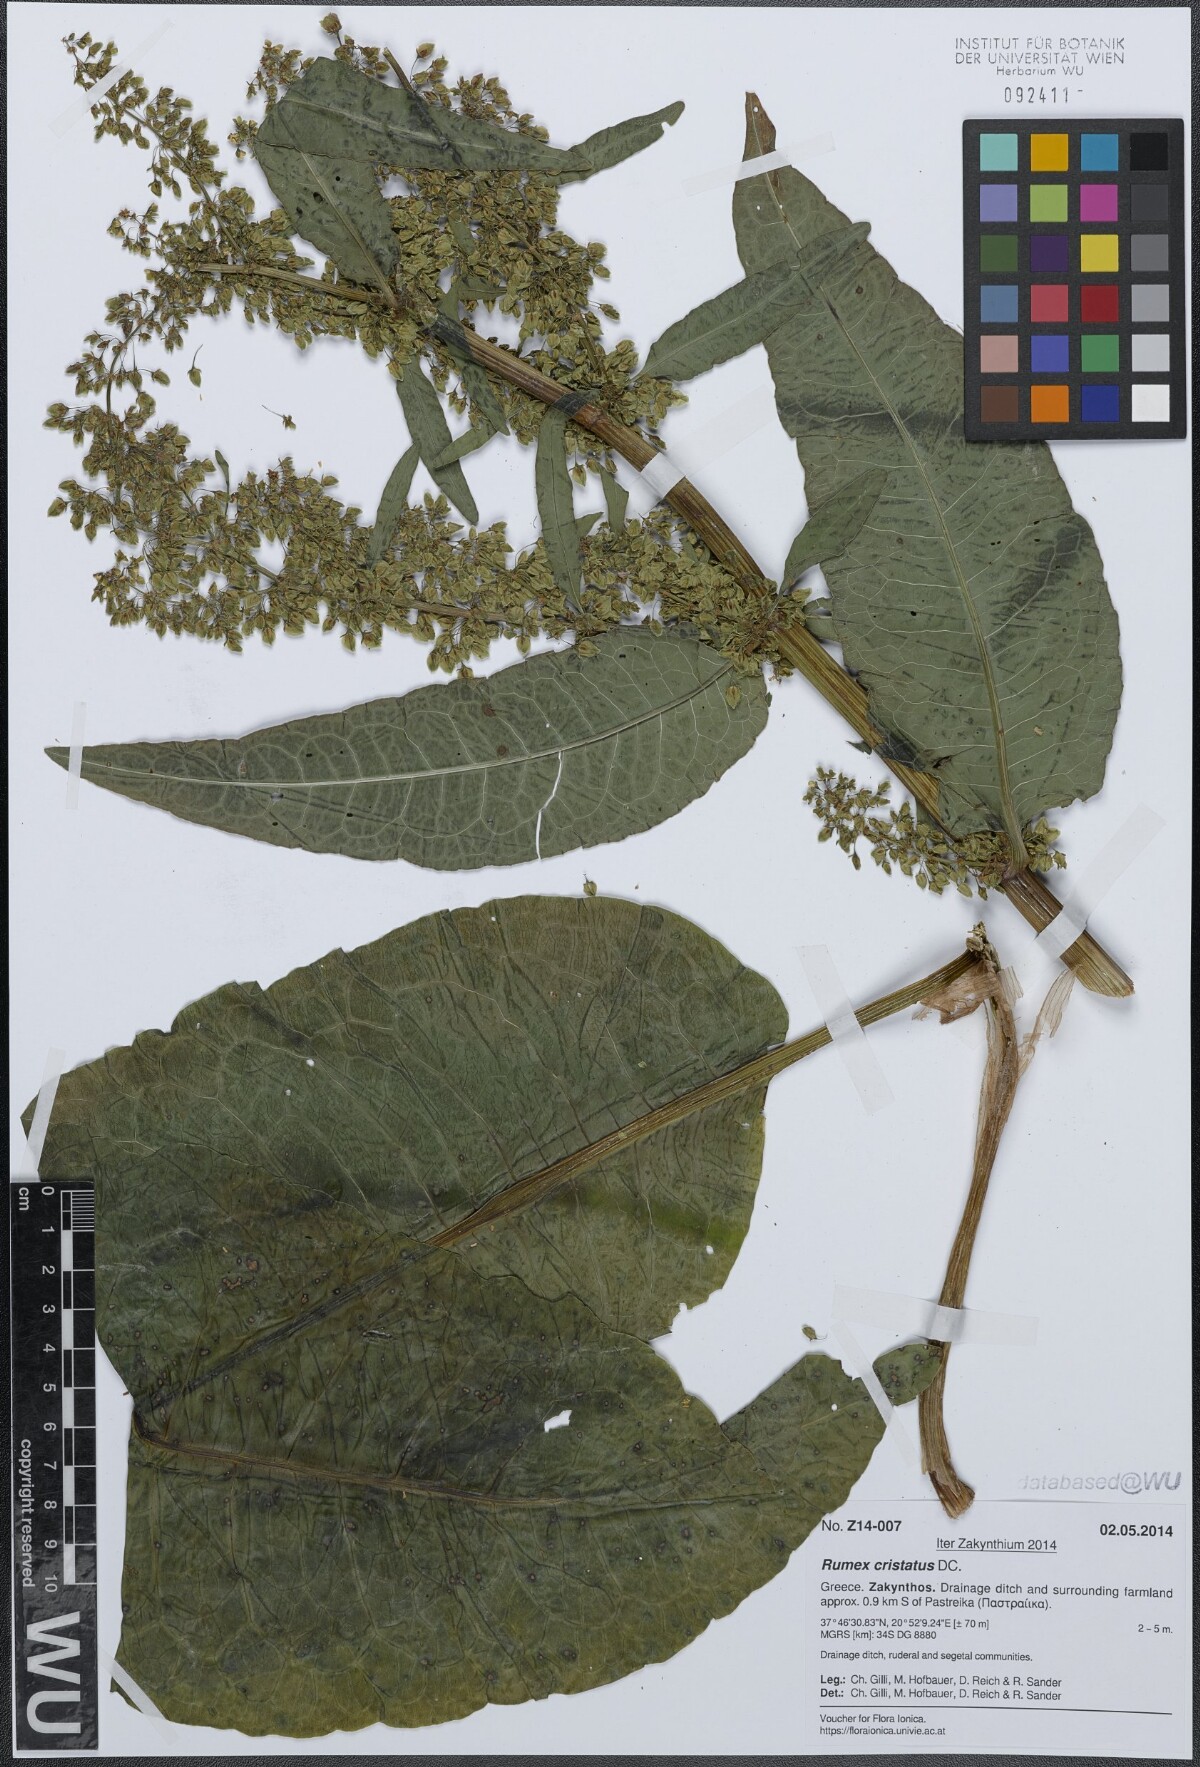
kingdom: Plantae
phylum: Tracheophyta
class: Magnoliopsida
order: Caryophyllales
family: Polygonaceae
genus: Rumex
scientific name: Rumex cristatus
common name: Greek dock
